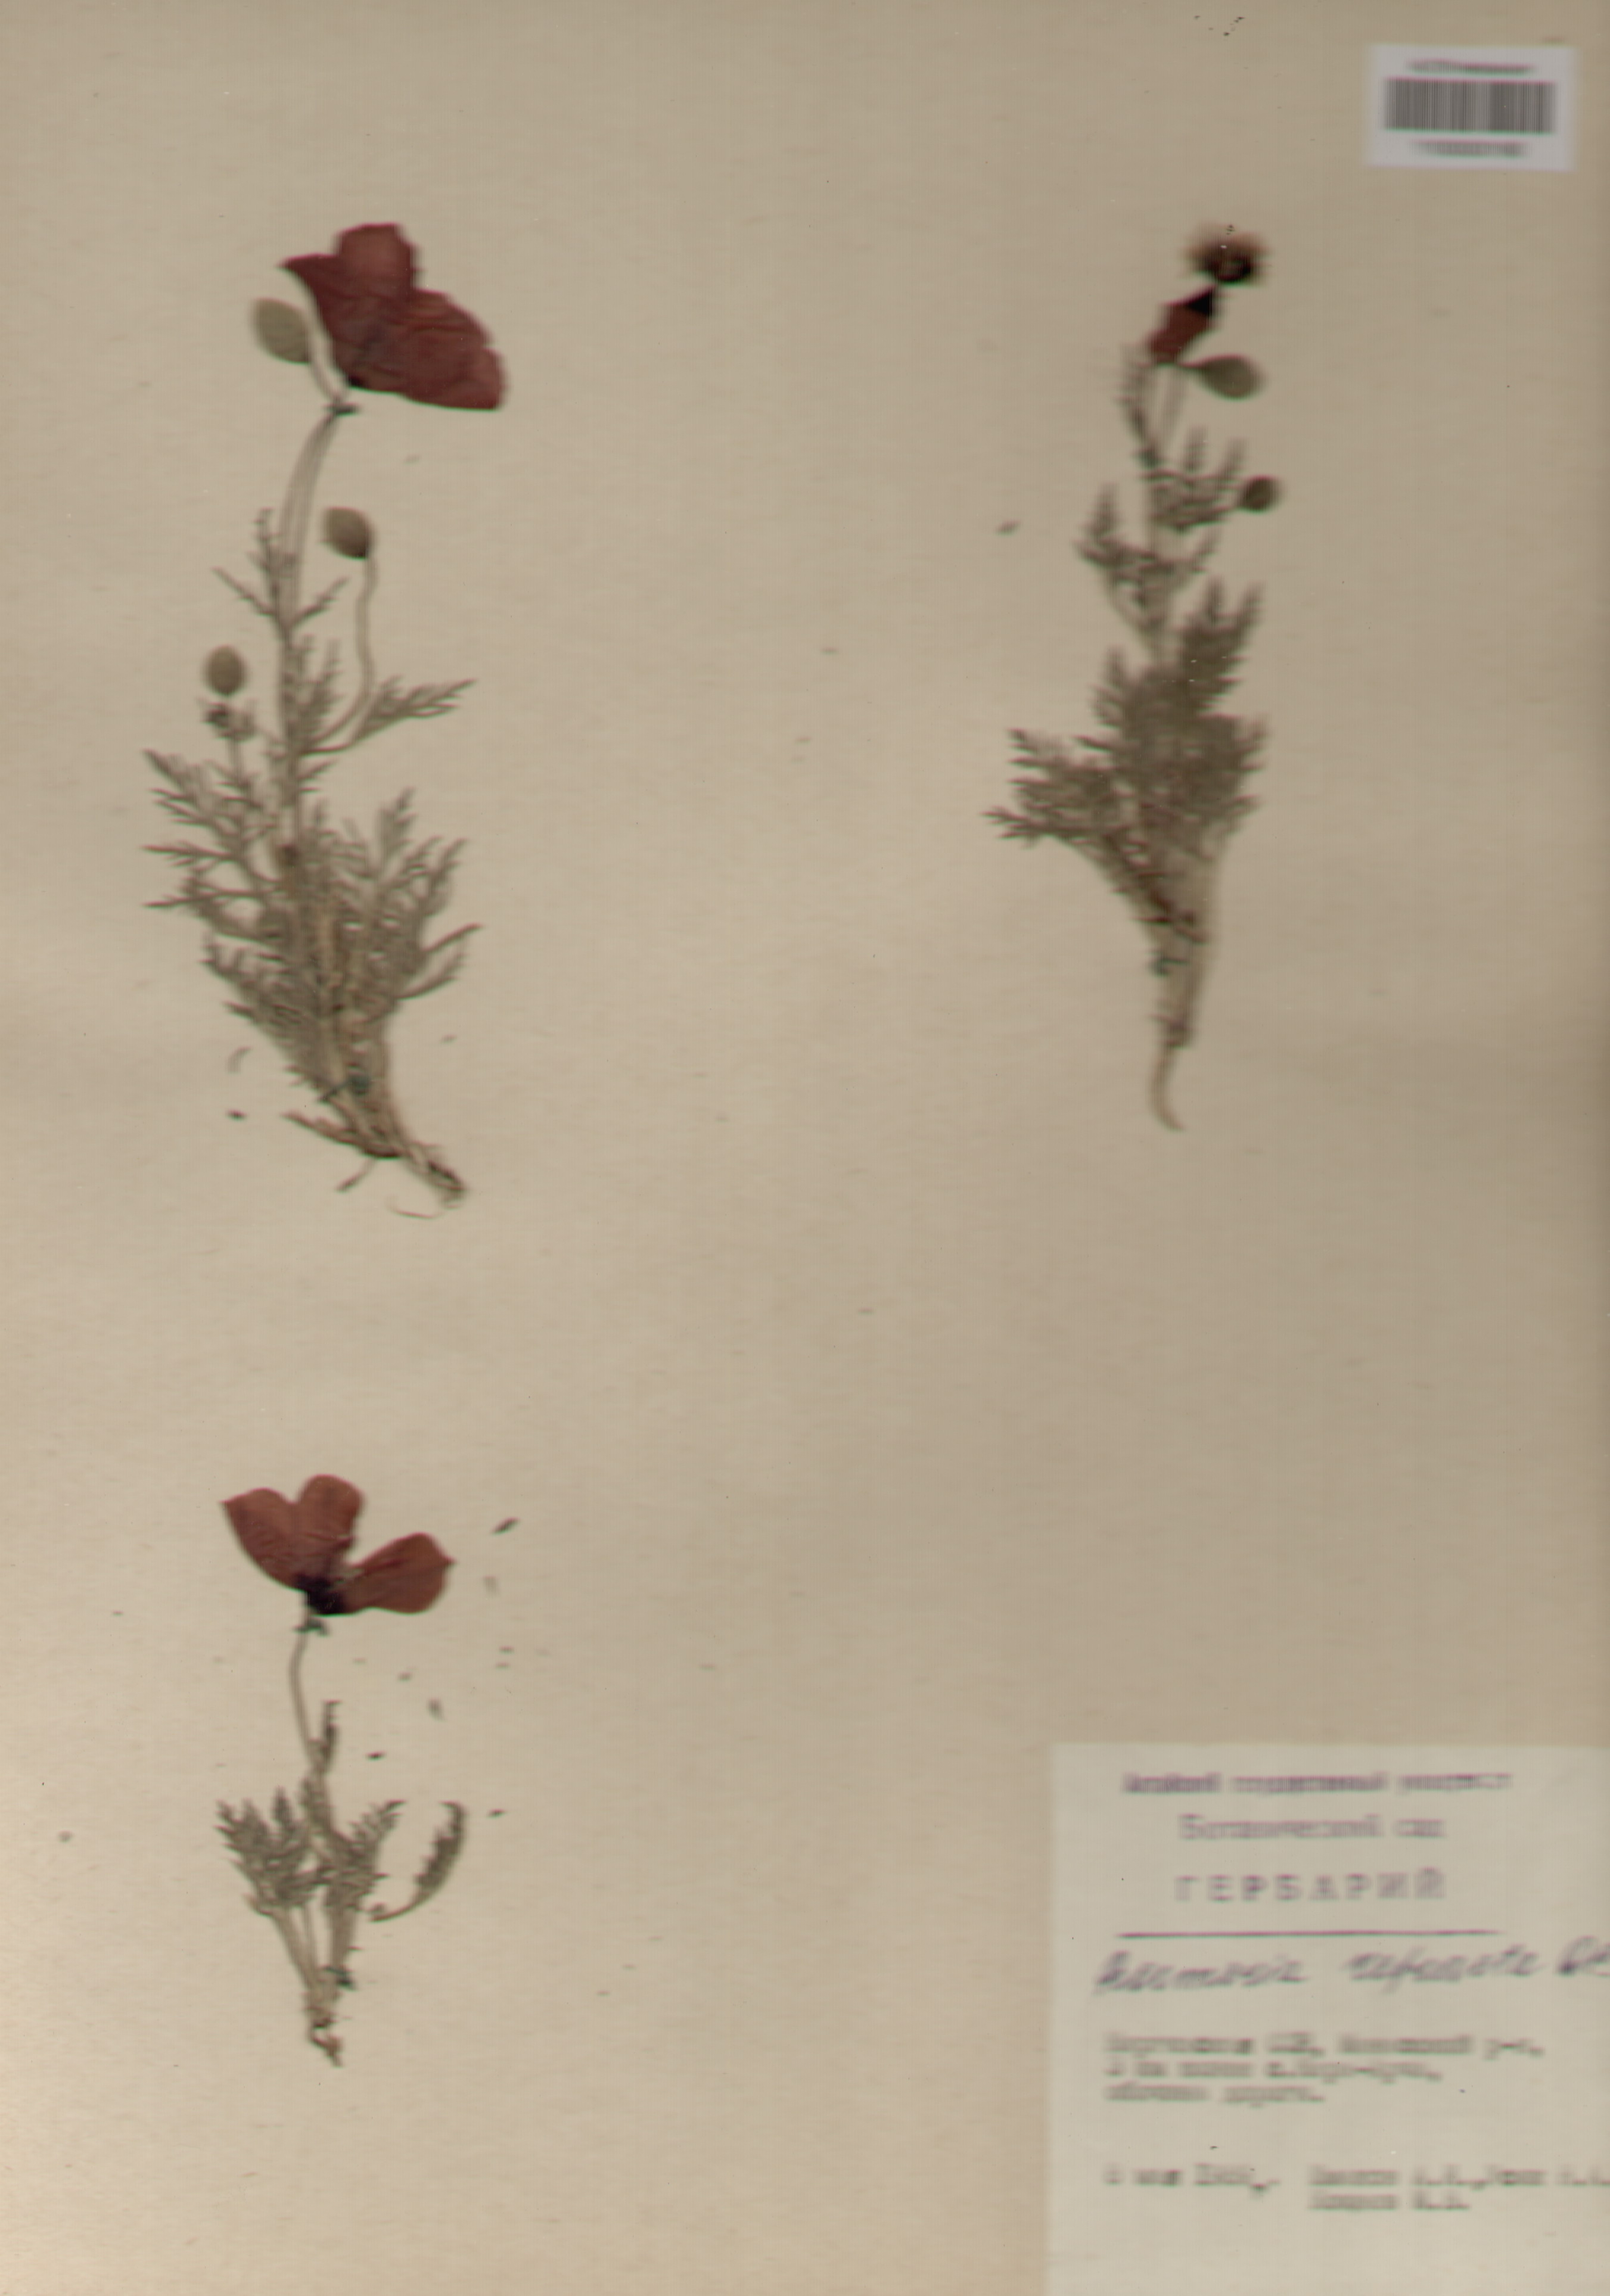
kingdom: Plantae
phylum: Tracheophyta
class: Magnoliopsida
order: Ranunculales
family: Papaveraceae
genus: Roemeria
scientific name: Roemeria refracta
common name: Spotted asian poppy
